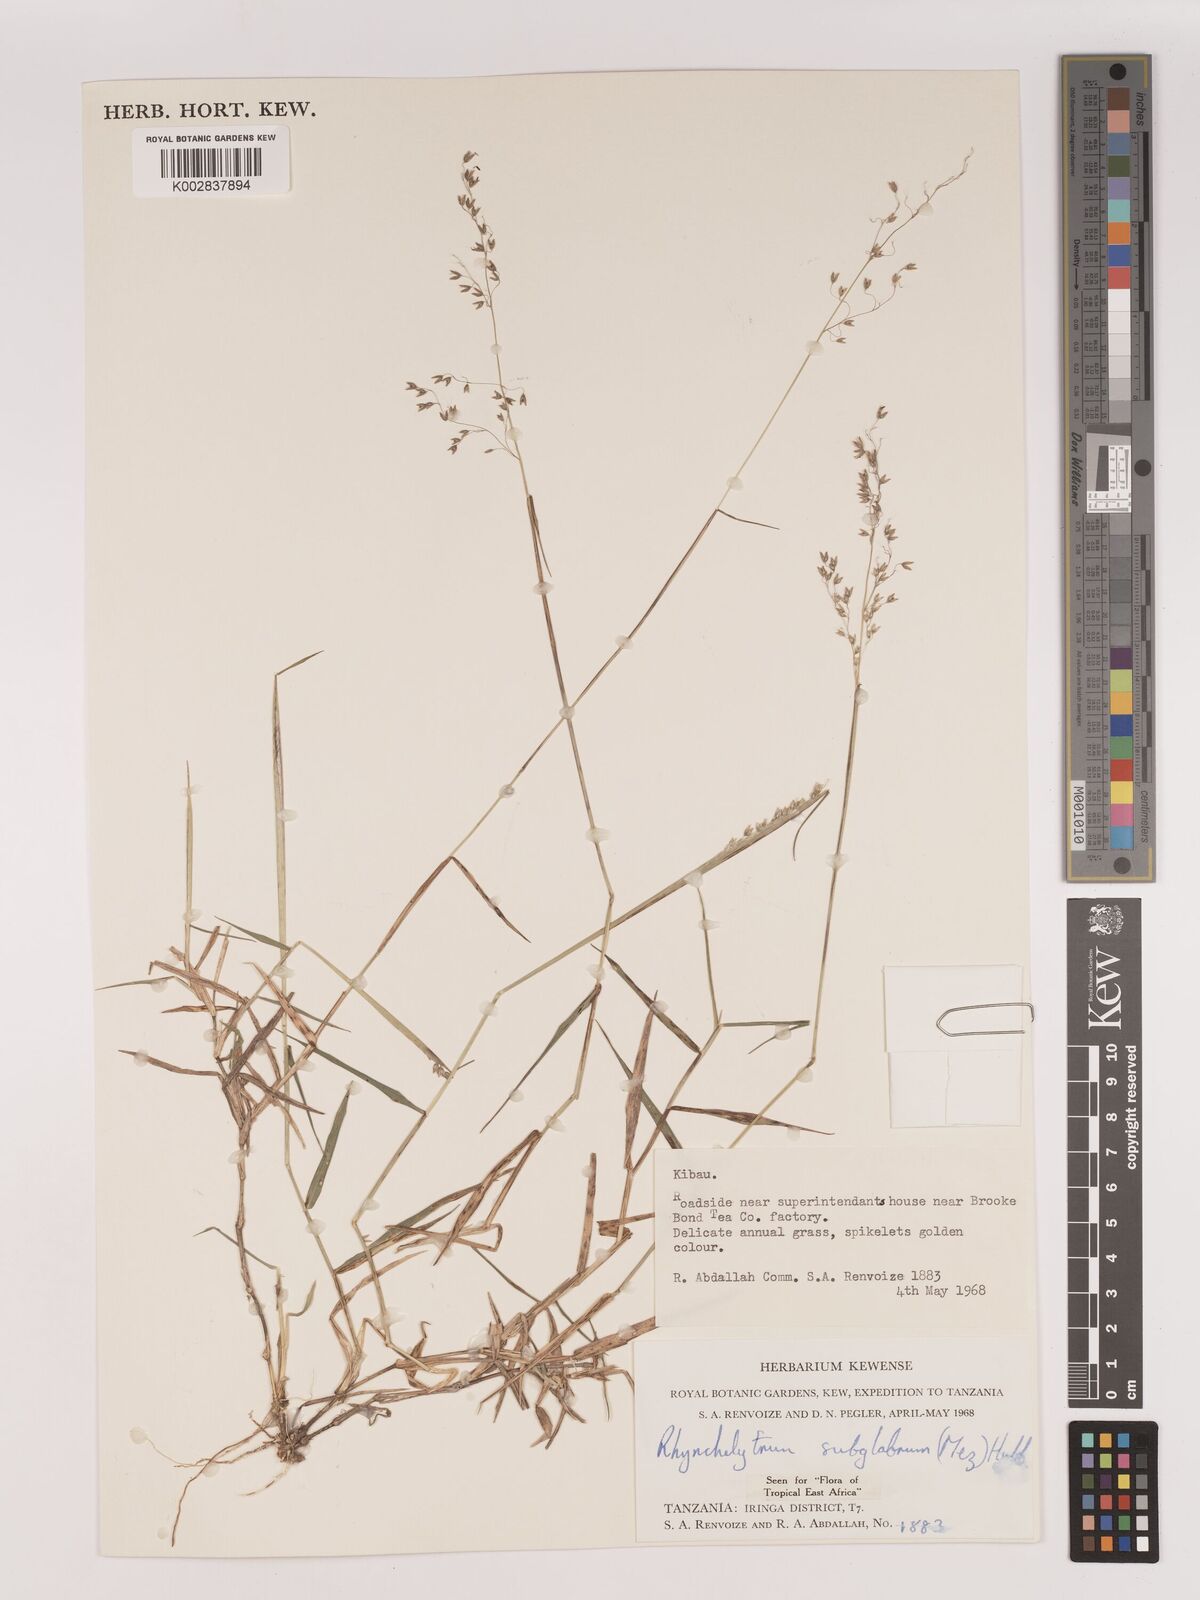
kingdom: Plantae
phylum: Tracheophyta
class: Liliopsida
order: Poales
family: Poaceae
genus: Melinis
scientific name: Melinis subglabra
